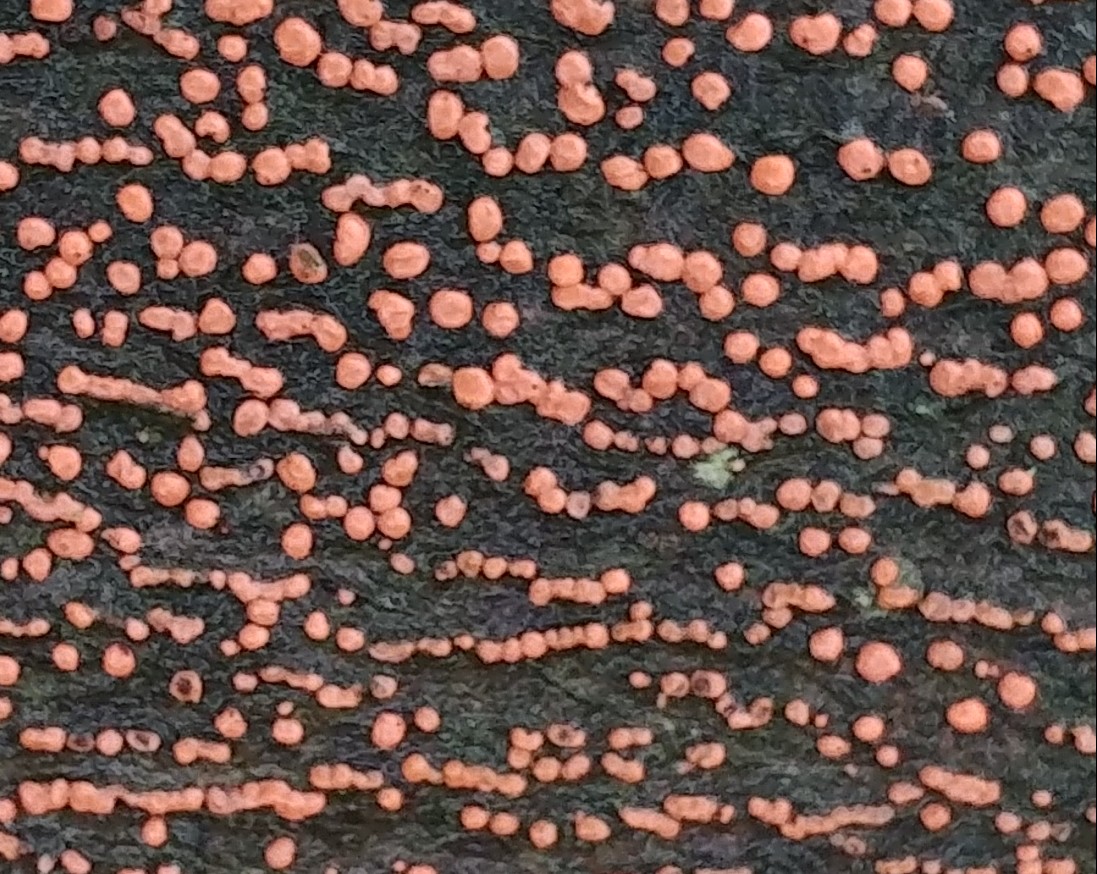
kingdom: Fungi
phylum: Ascomycota
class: Sordariomycetes
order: Hypocreales
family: Nectriaceae
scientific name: Nectriaceae
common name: cinnobersvampfamilien
